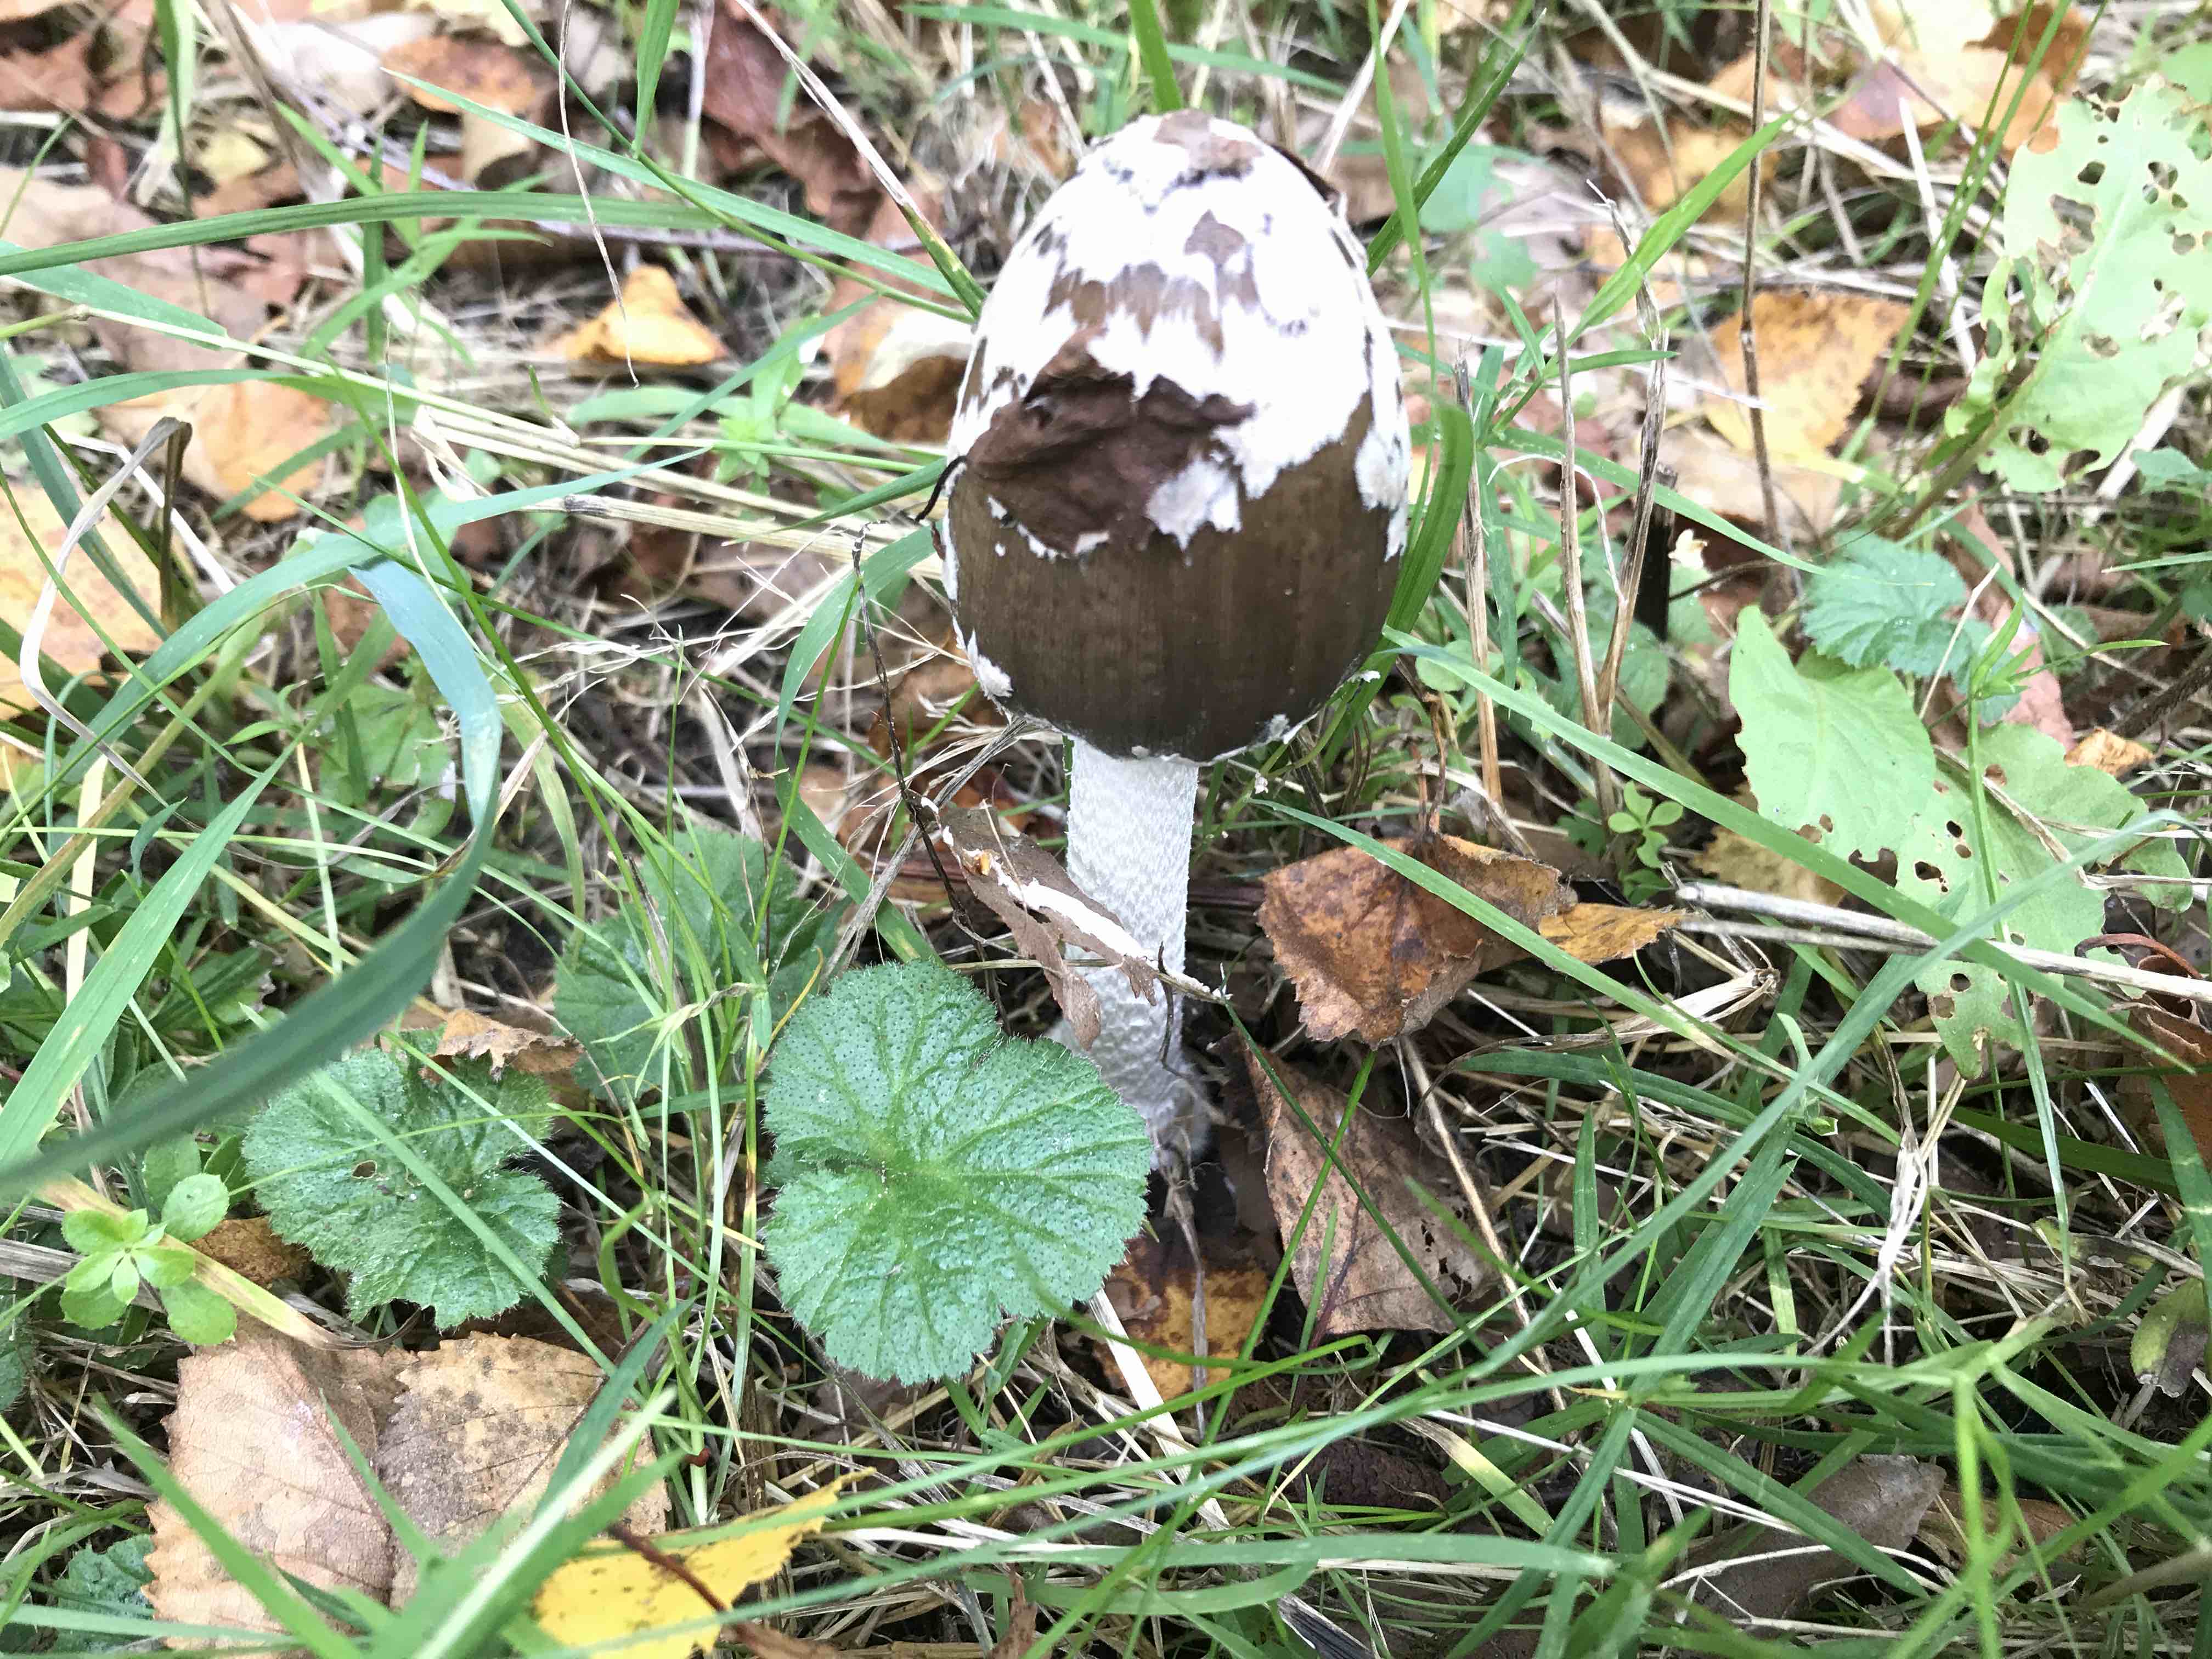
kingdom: Fungi
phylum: Basidiomycota
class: Agaricomycetes
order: Agaricales
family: Psathyrellaceae
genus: Coprinopsis
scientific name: Coprinopsis picacea
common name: skade-blækhat
